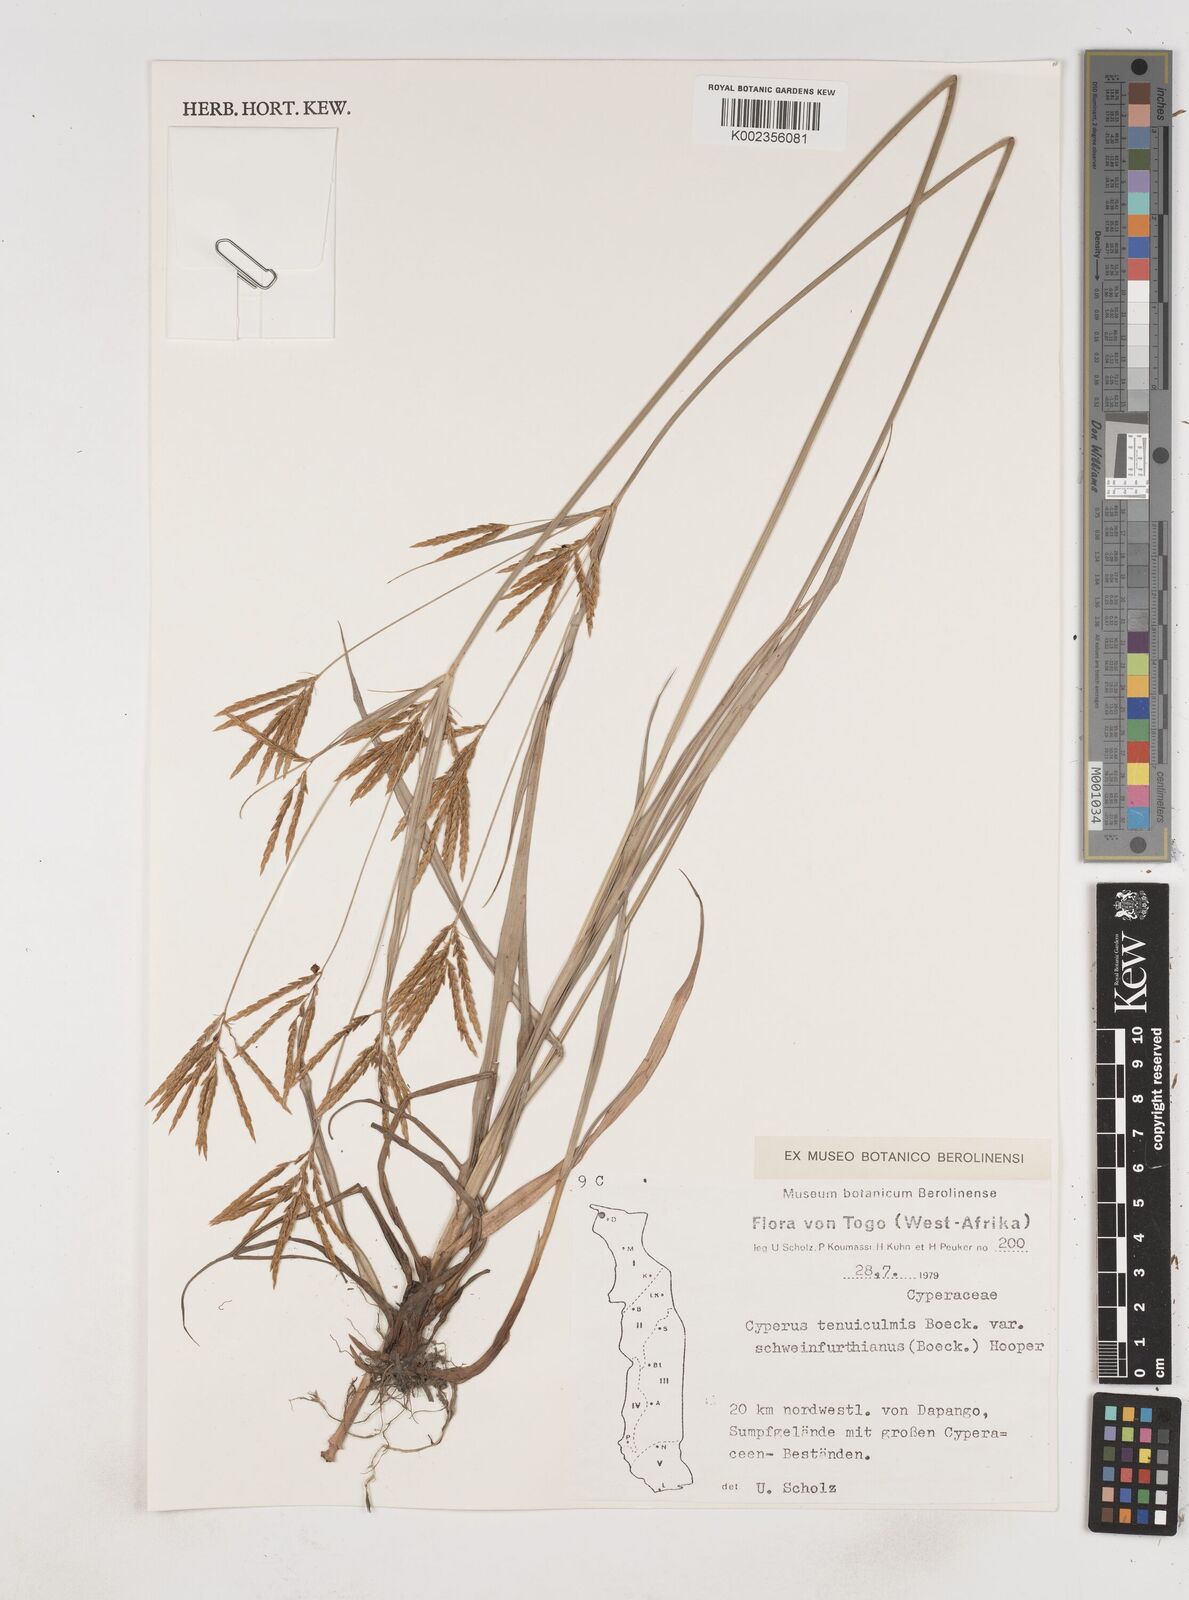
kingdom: Plantae
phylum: Tracheophyta
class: Liliopsida
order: Poales
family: Cyperaceae
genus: Cyperus
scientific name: Cyperus tenuiculmis
